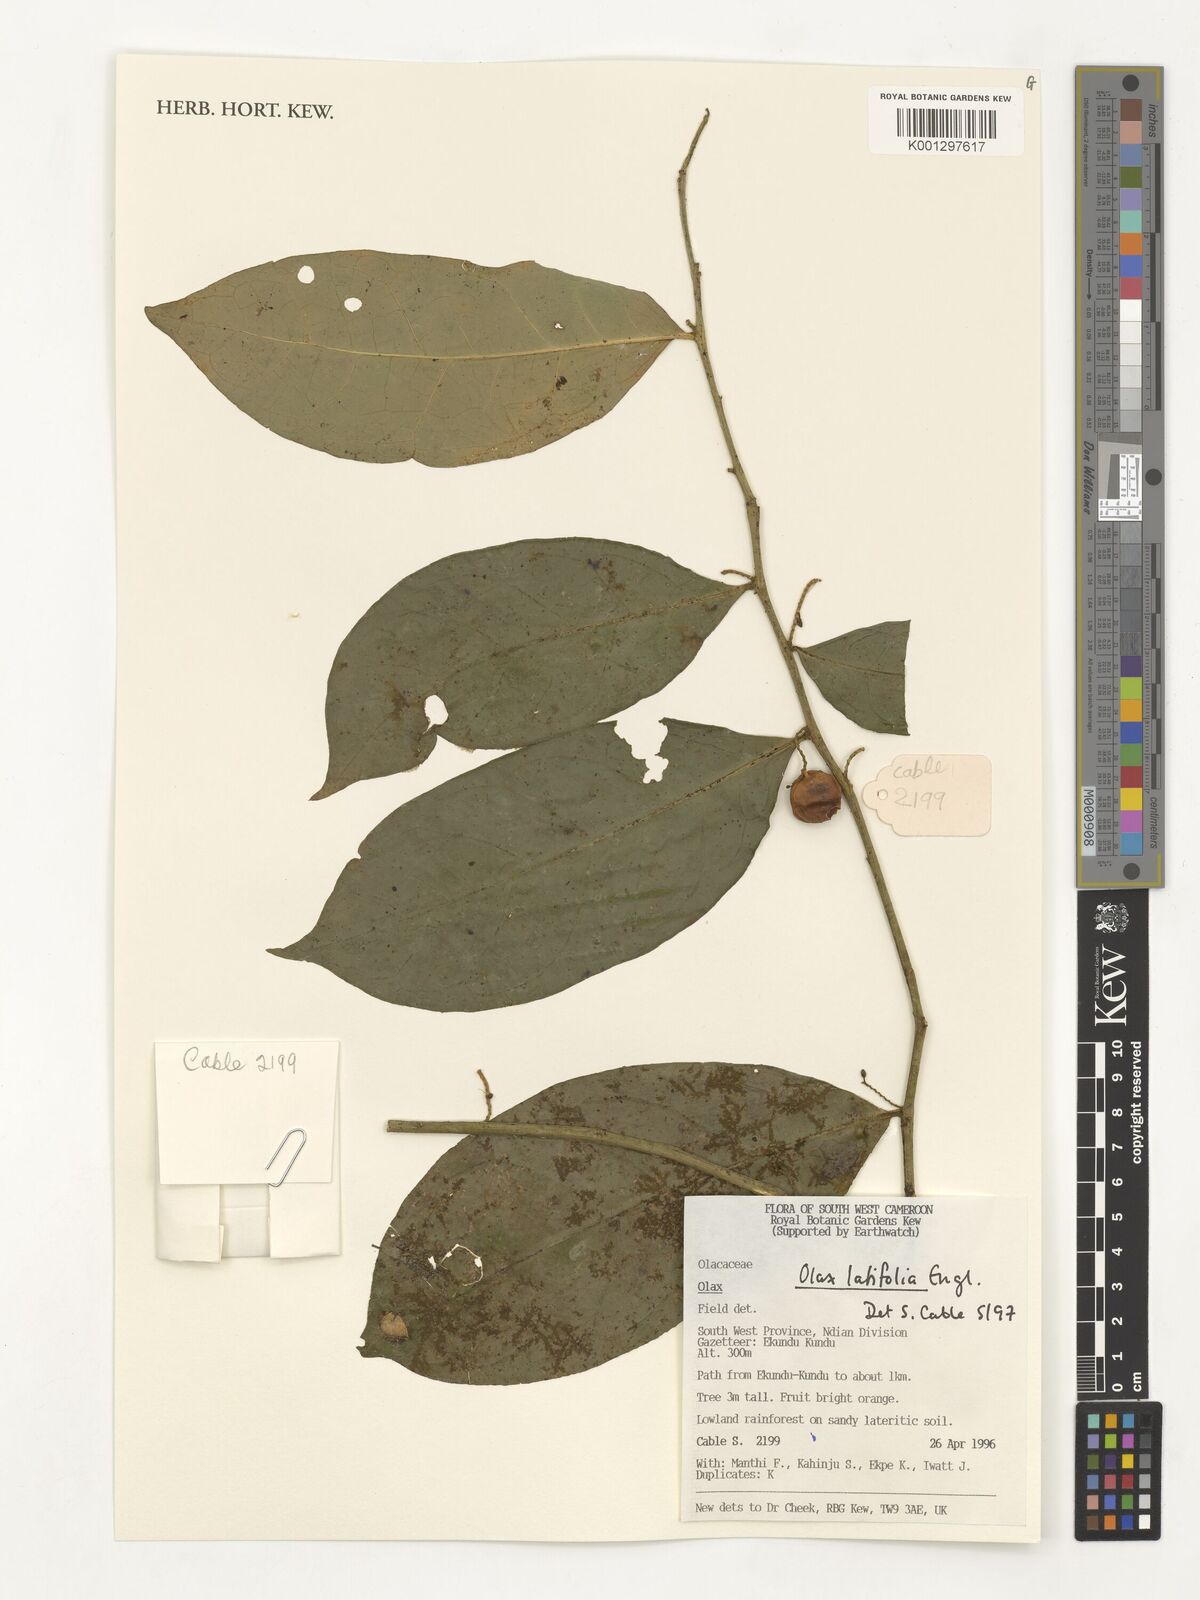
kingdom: Plantae
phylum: Tracheophyta
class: Magnoliopsida
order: Santalales
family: Olacaceae
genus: Olax
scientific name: Olax latifolia
